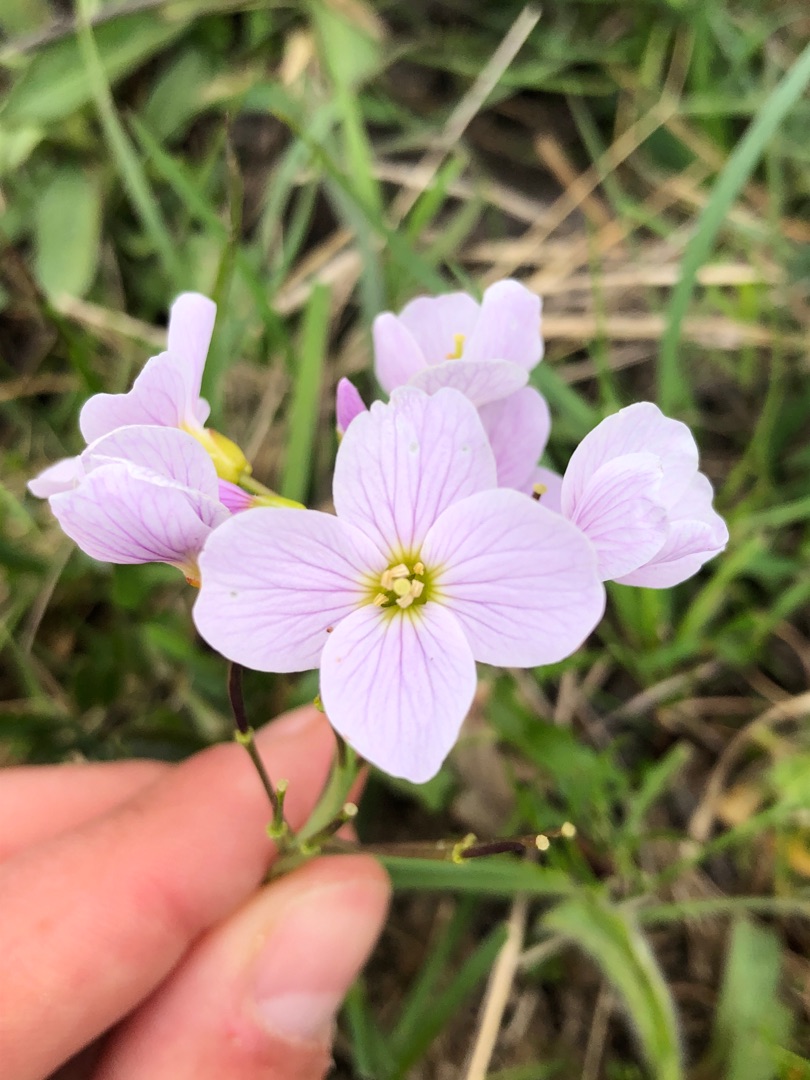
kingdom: Plantae
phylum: Tracheophyta
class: Magnoliopsida
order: Brassicales
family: Brassicaceae
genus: Cardamine
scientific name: Cardamine pratensis
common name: Engkarse
